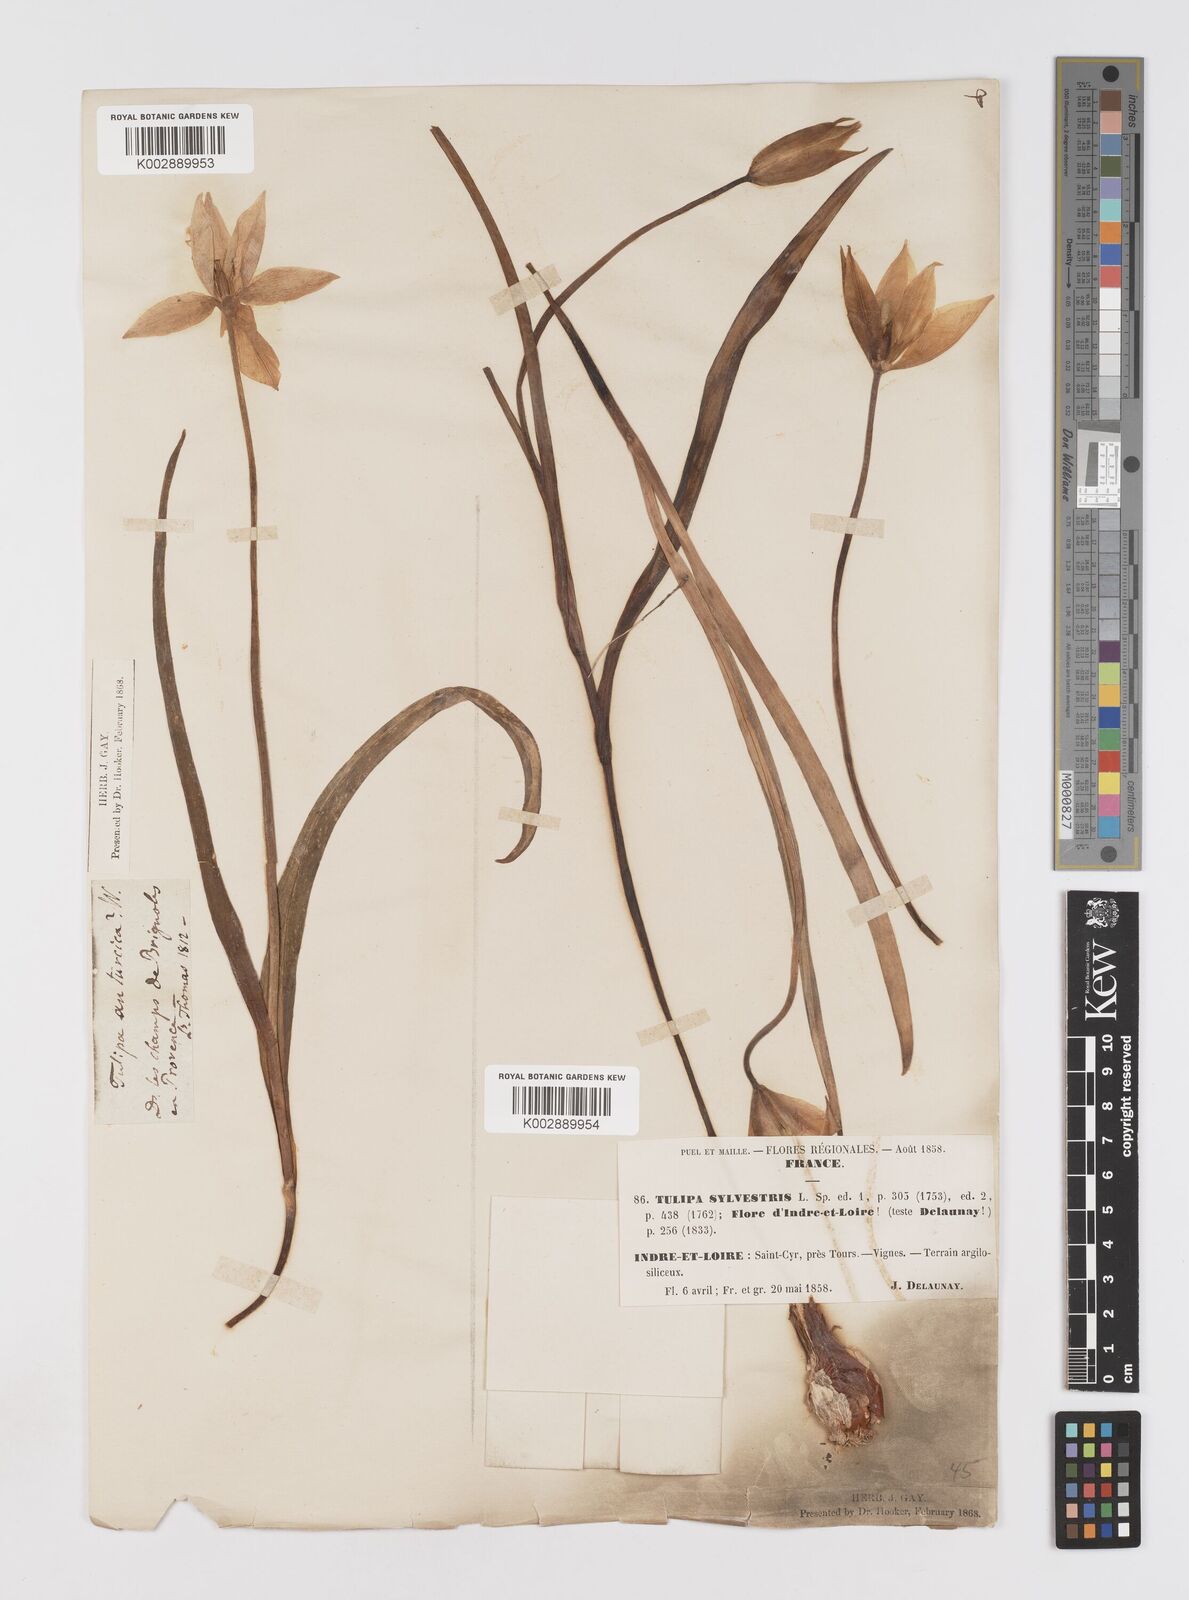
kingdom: Plantae
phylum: Tracheophyta
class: Liliopsida
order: Liliales
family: Liliaceae
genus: Tulipa
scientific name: Tulipa sylvestris
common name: Wild tulip
